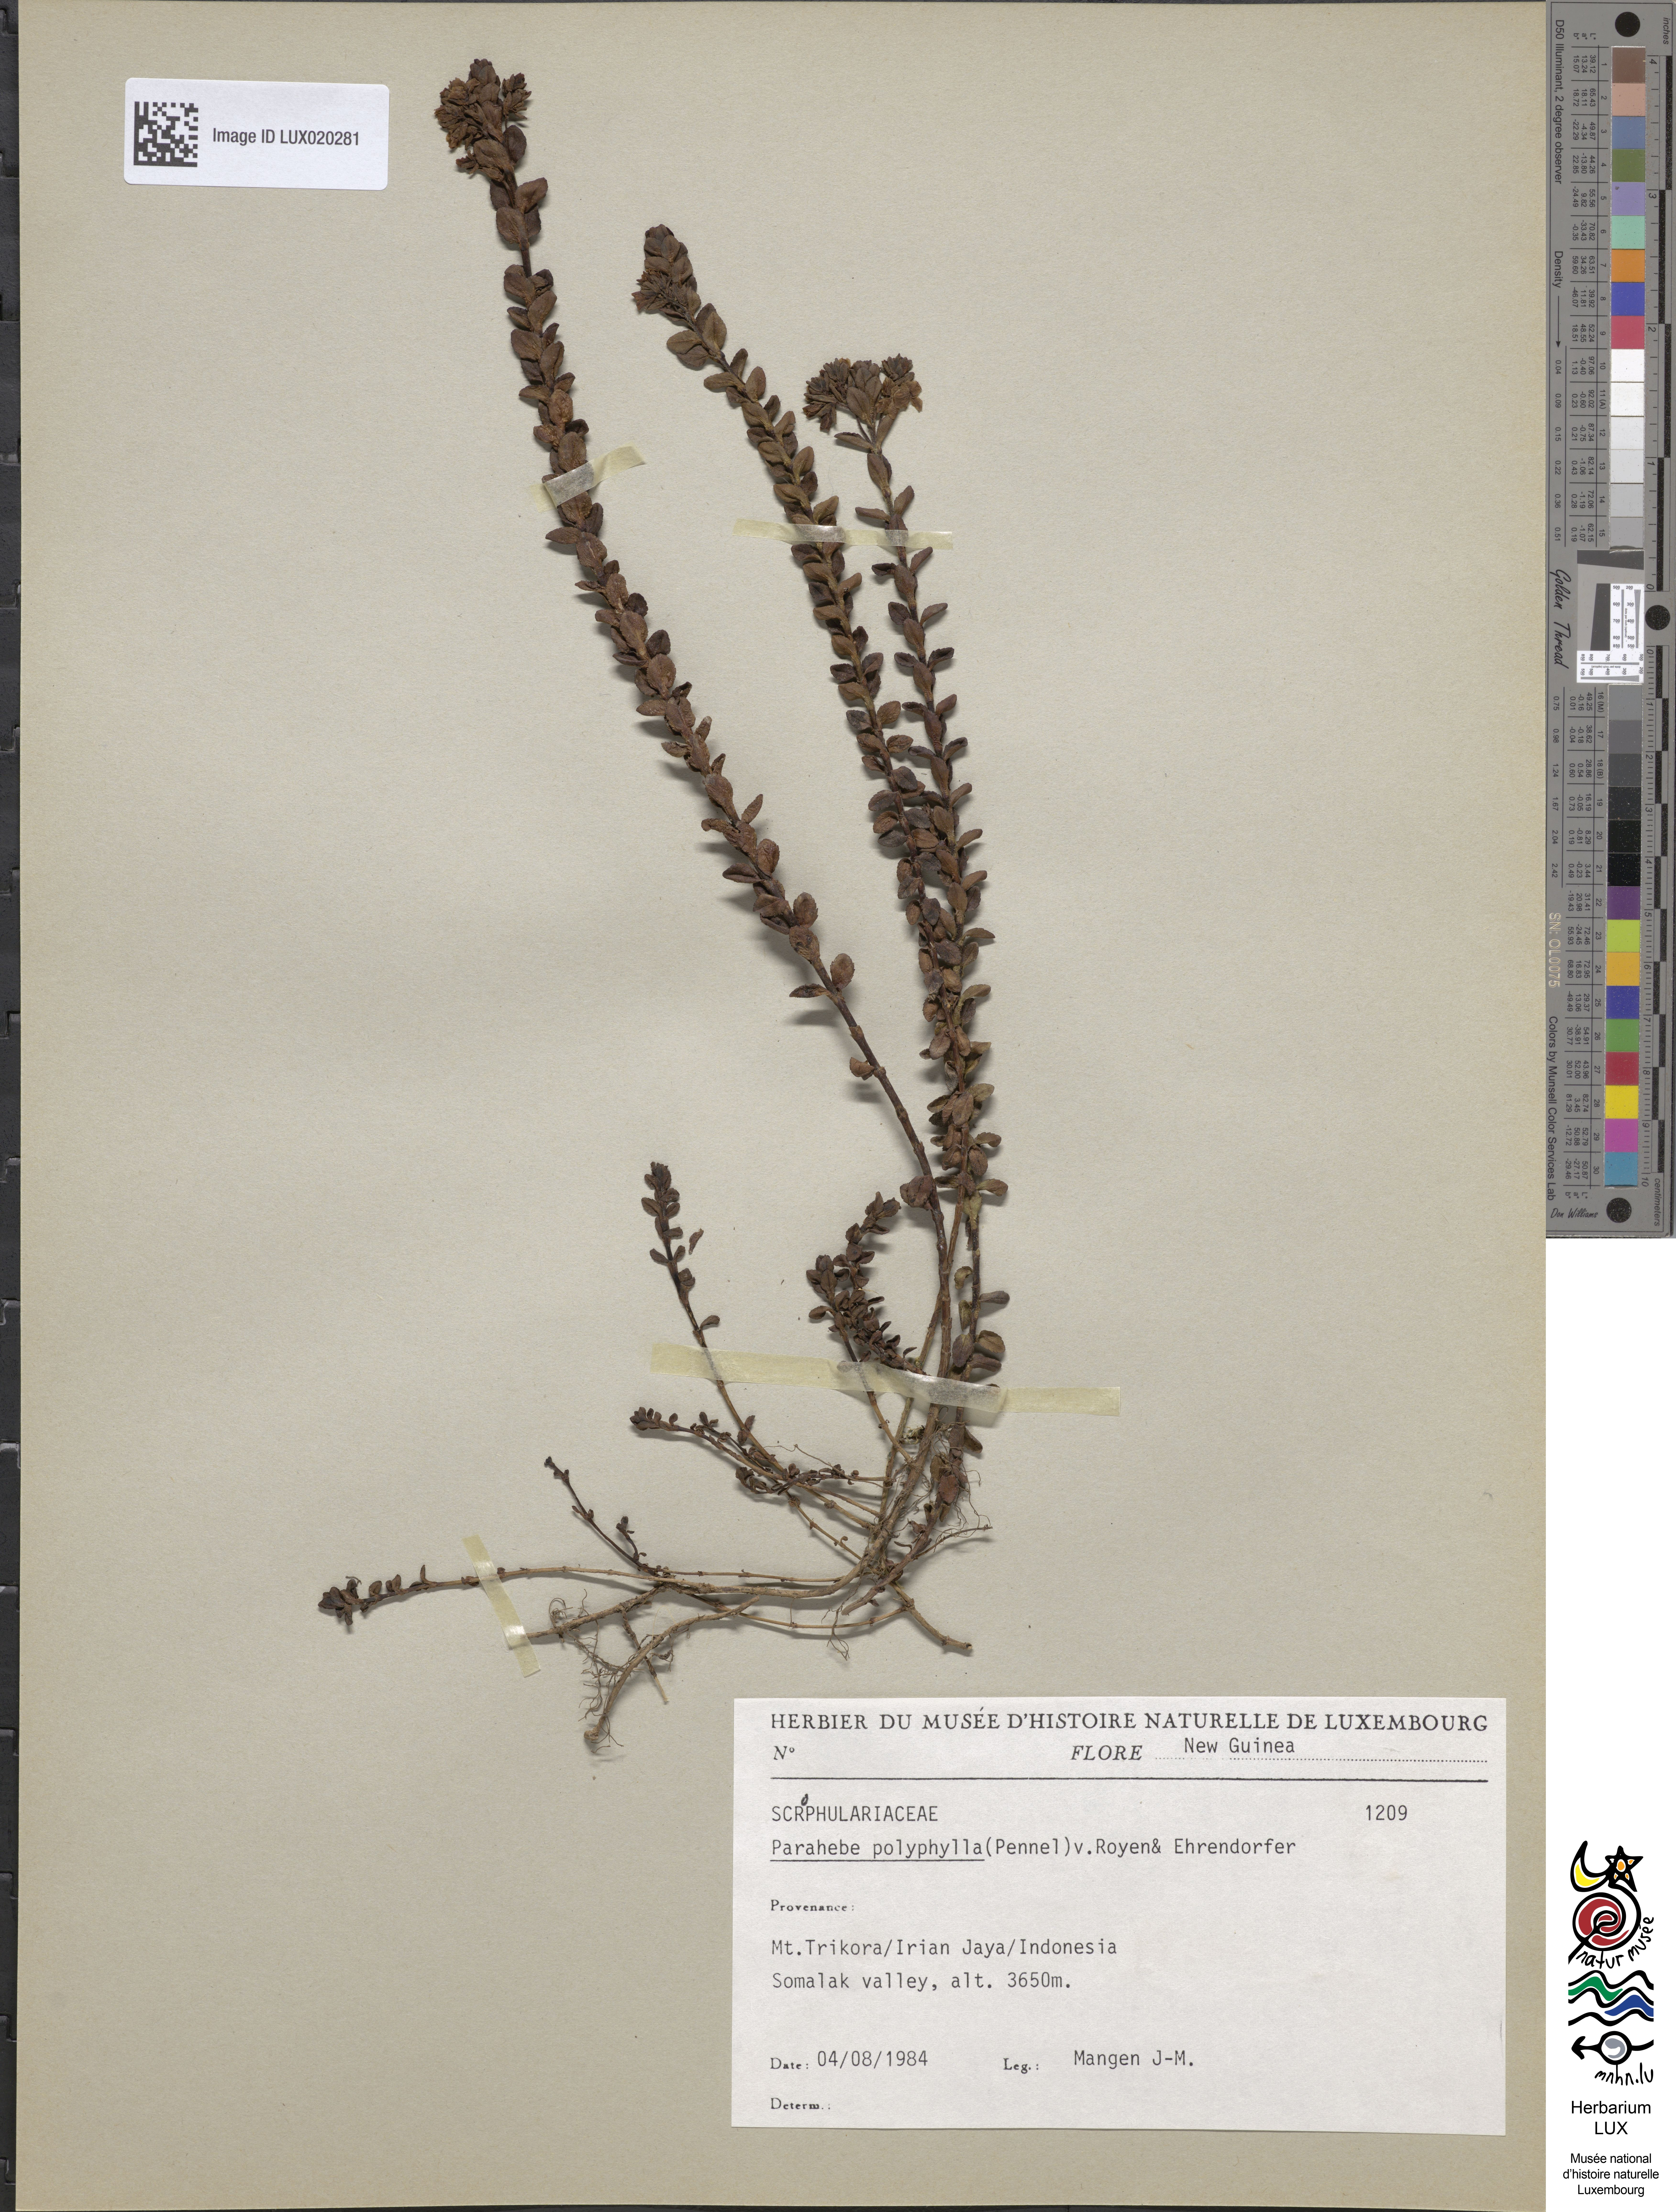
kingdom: Plantae
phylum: Tracheophyta
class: Magnoliopsida
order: Lamiales
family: Plantaginaceae
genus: Veronica
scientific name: Veronica wilhelminensis
